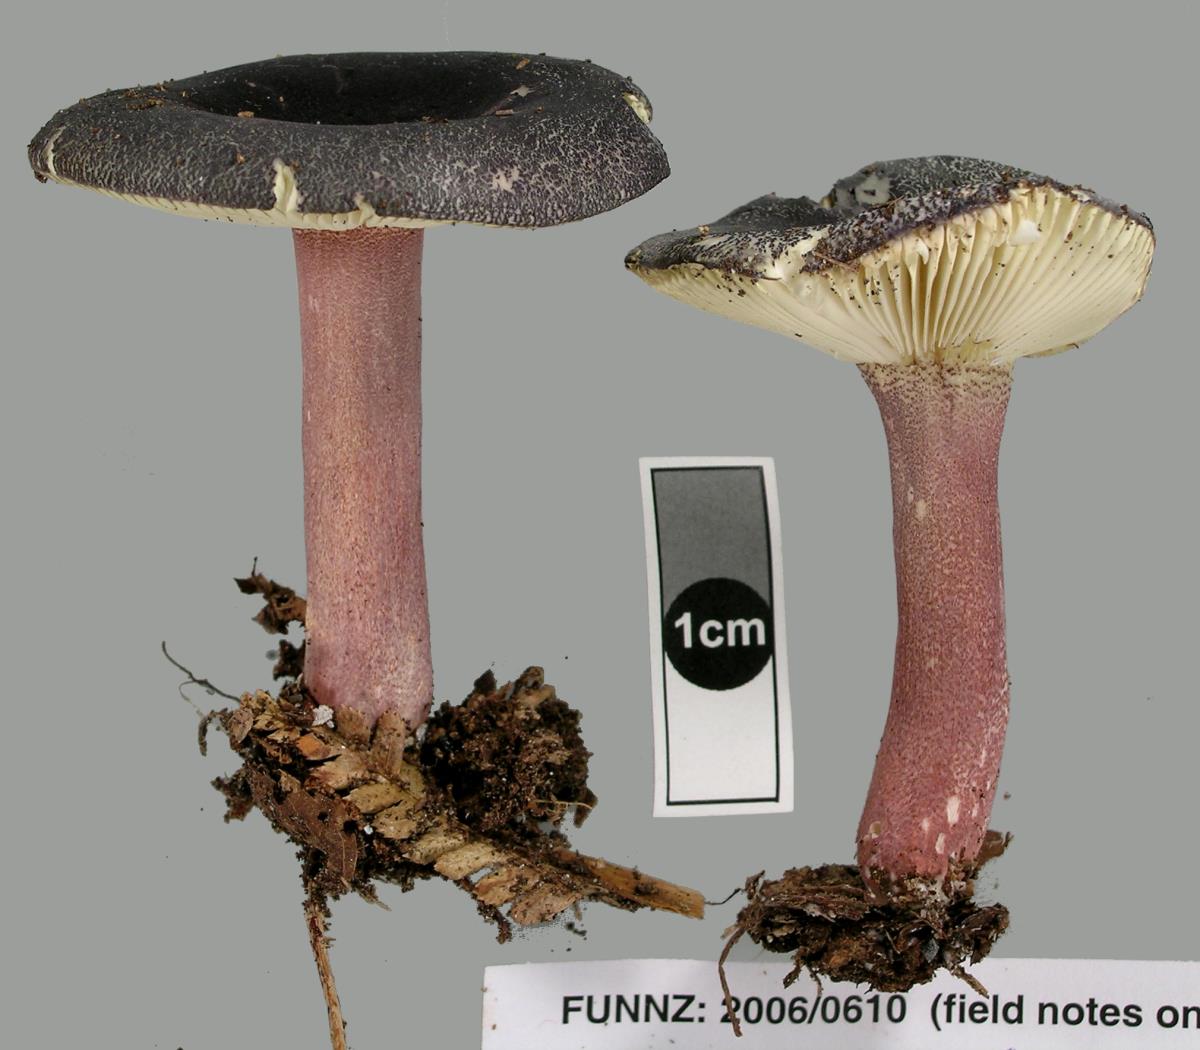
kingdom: Fungi
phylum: Basidiomycota
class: Agaricomycetes
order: Russulales
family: Russulaceae
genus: Russula
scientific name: Russula
